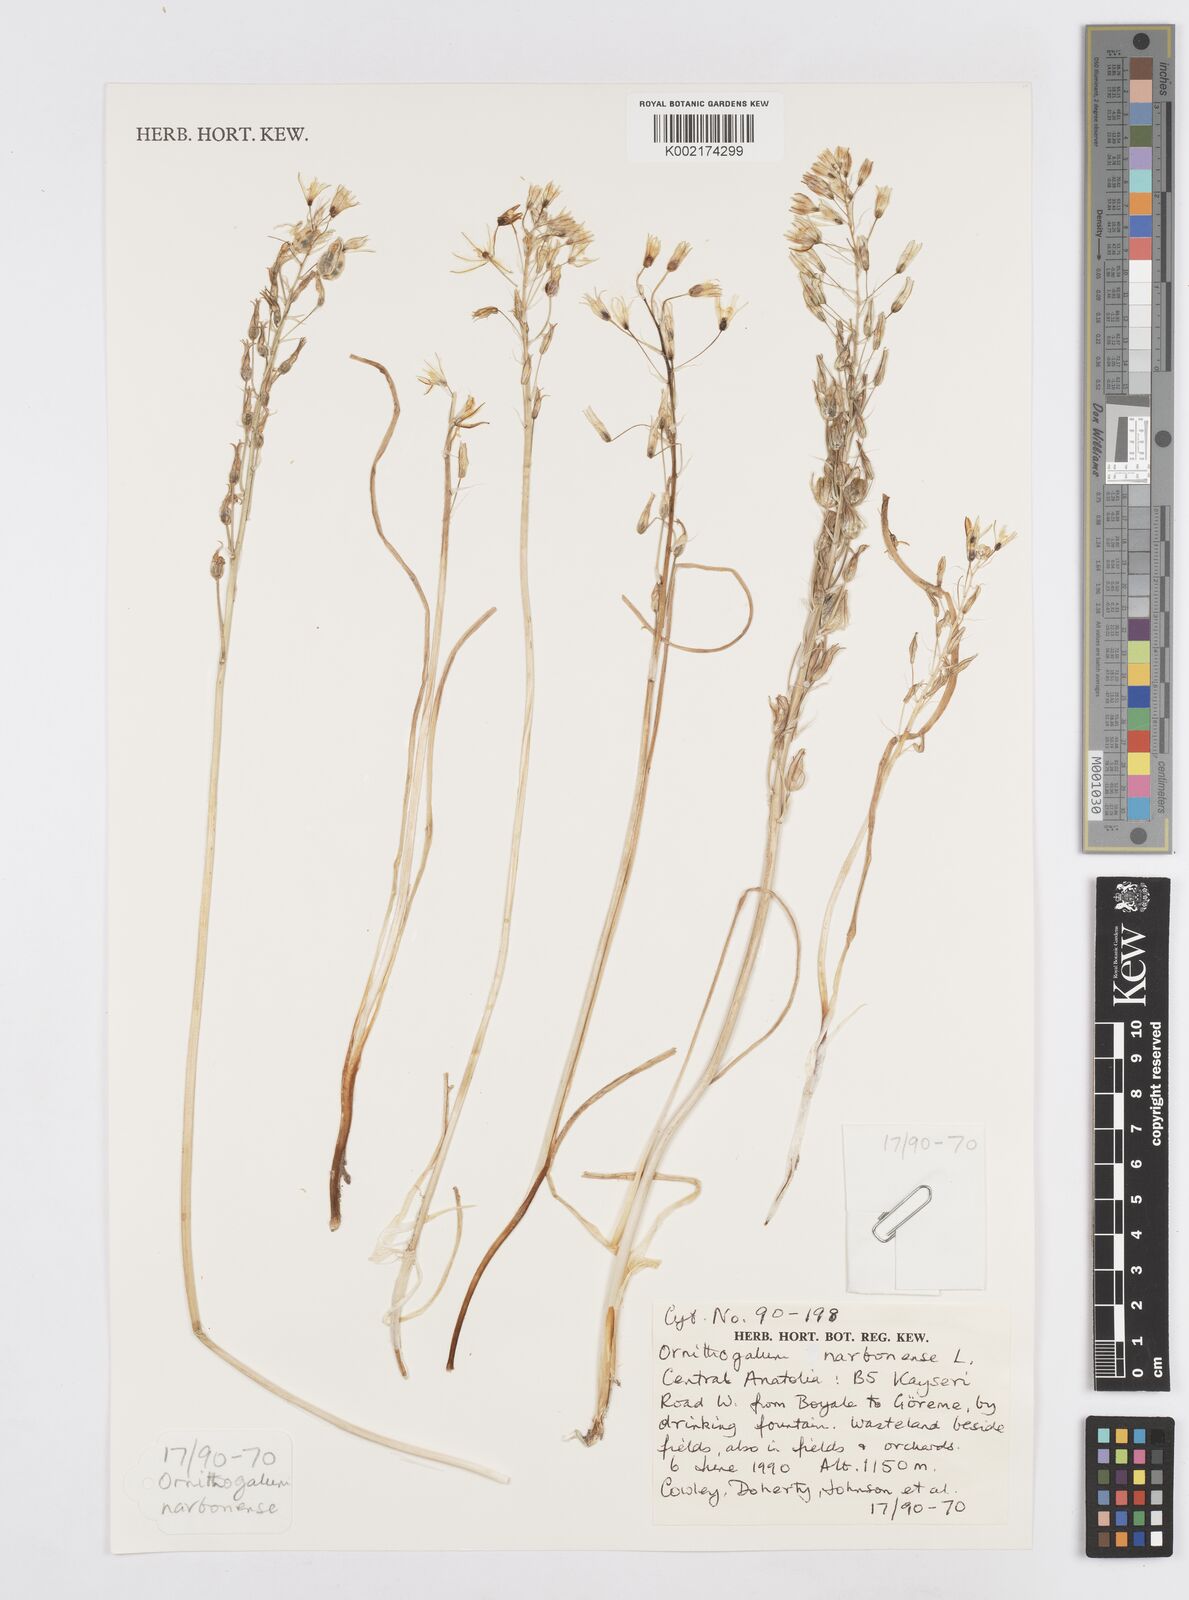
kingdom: Plantae
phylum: Tracheophyta
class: Liliopsida
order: Asparagales
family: Asparagaceae
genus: Ornithogalum
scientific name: Ornithogalum narbonense
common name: Bath-asparagus
